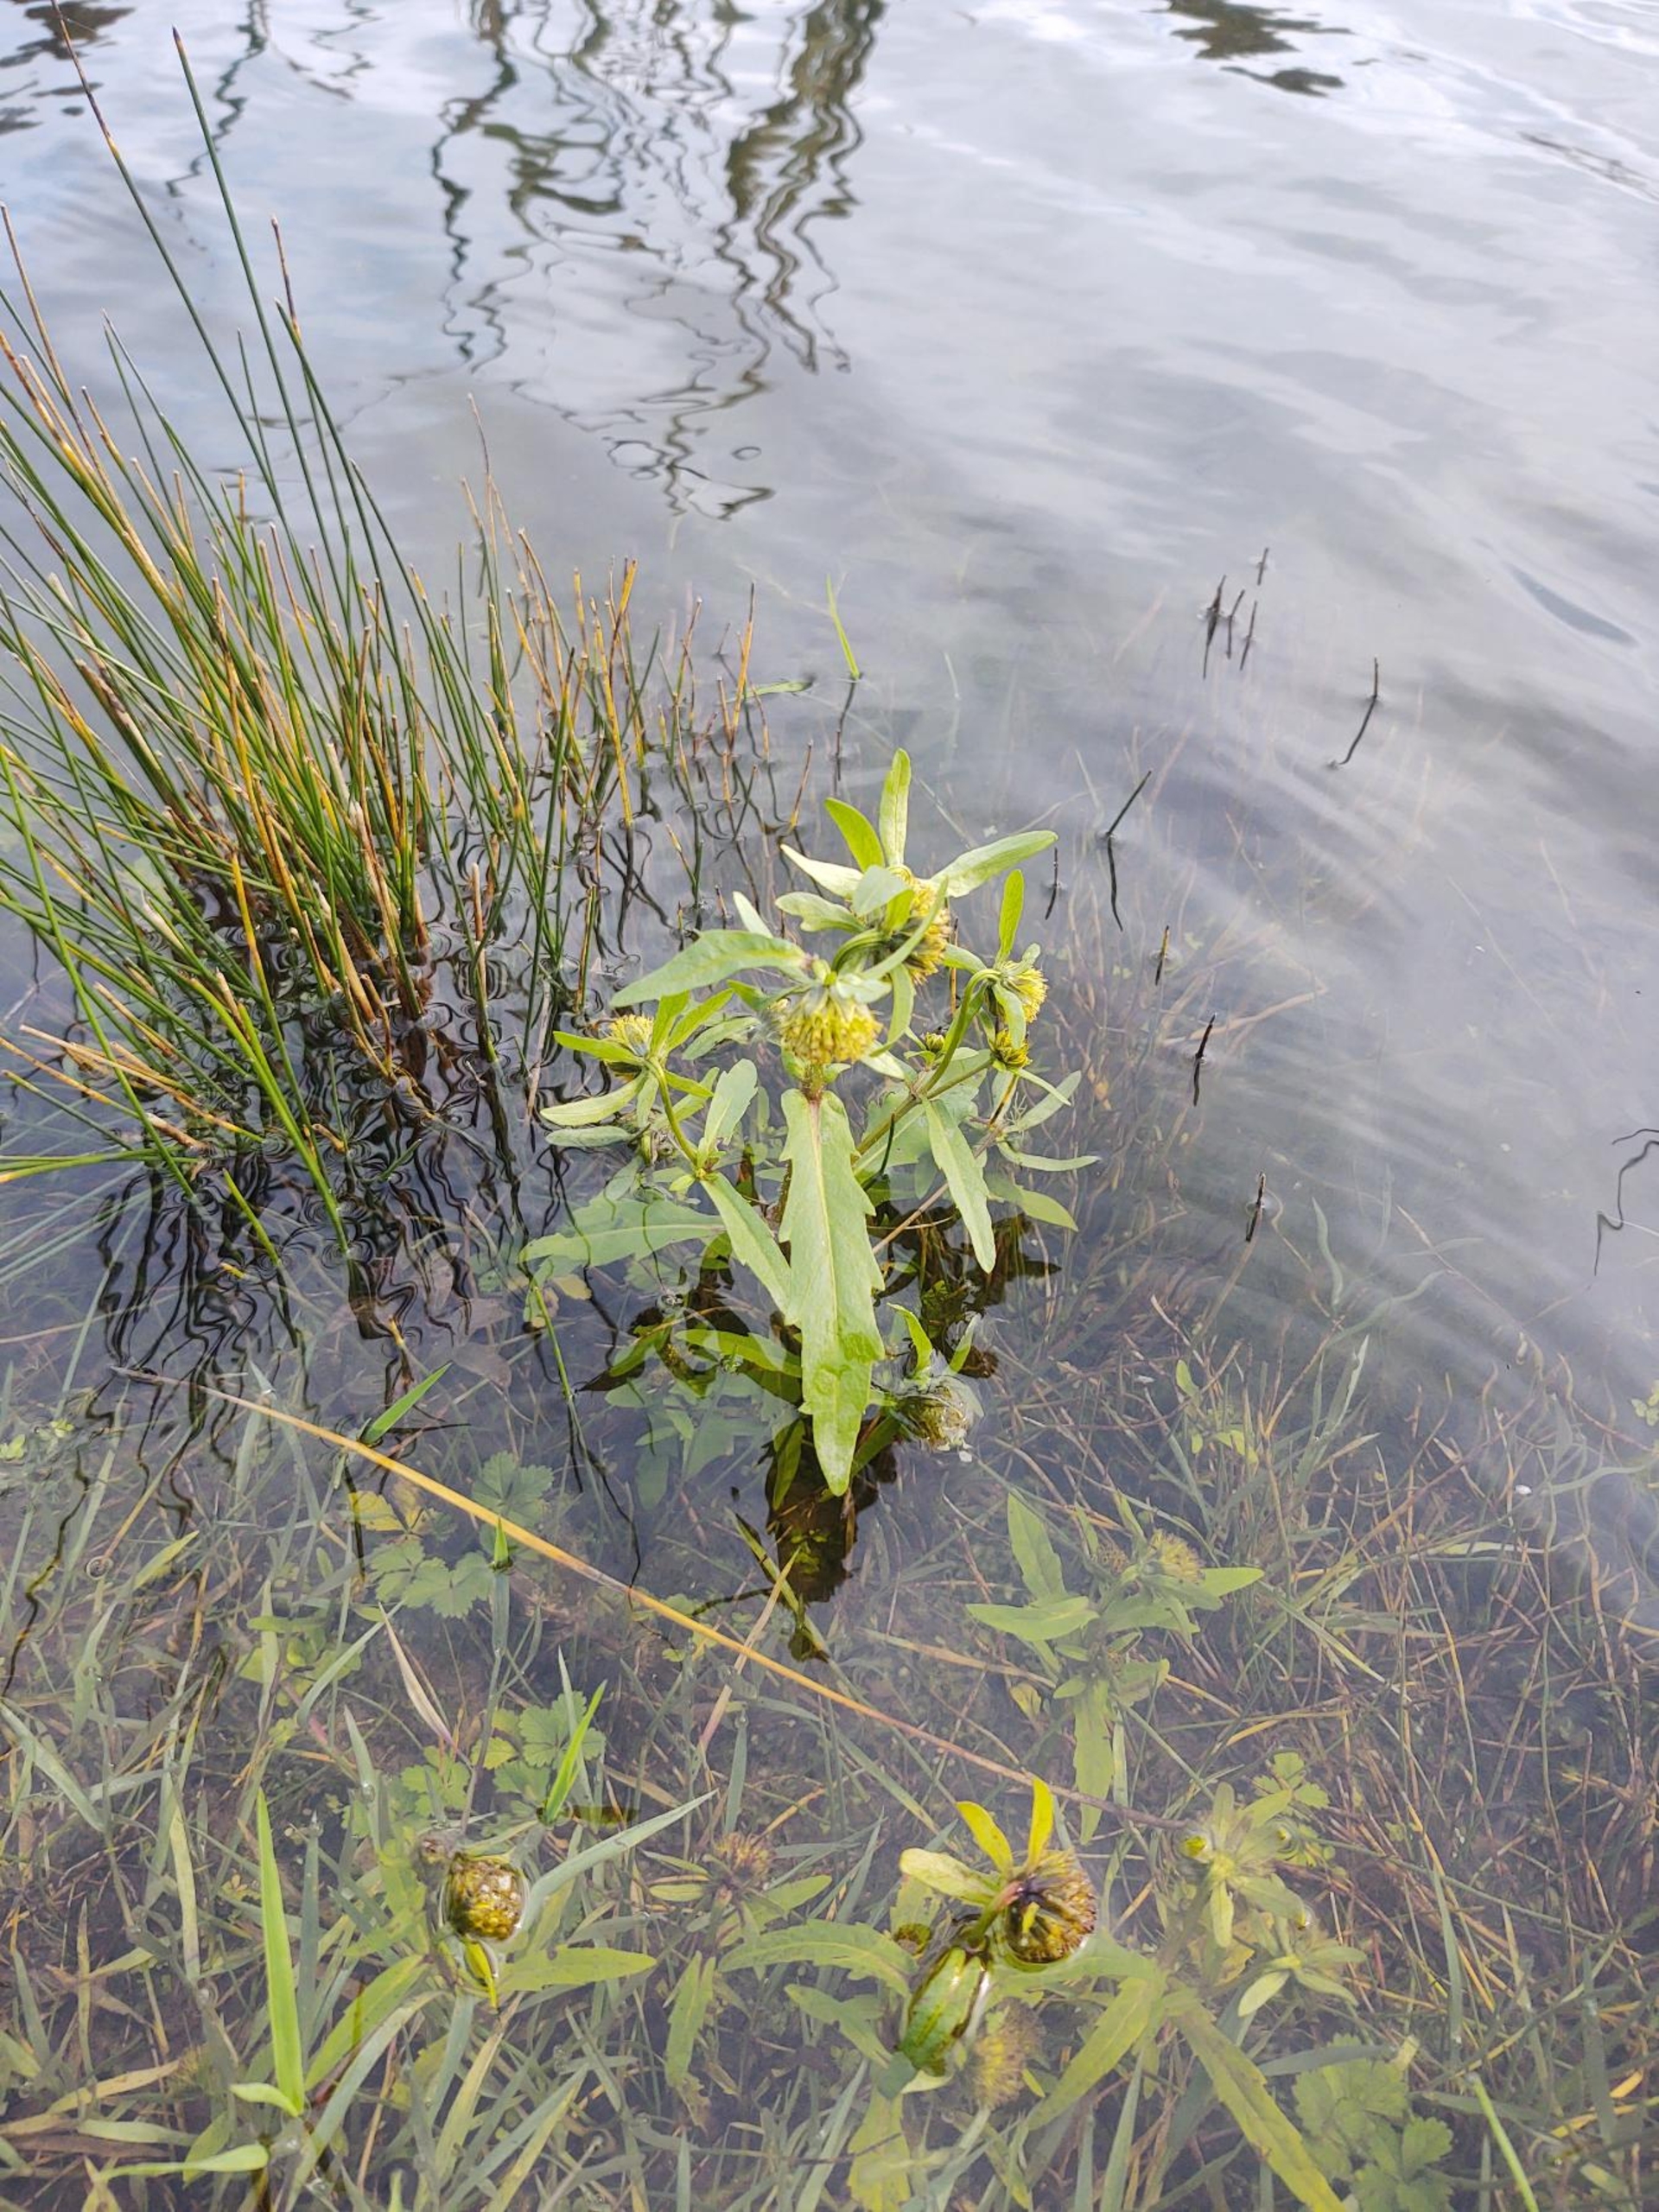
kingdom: Plantae
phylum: Tracheophyta
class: Magnoliopsida
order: Asterales
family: Asteraceae
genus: Bidens
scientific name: Bidens cernua
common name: Nikkende brøndsel
